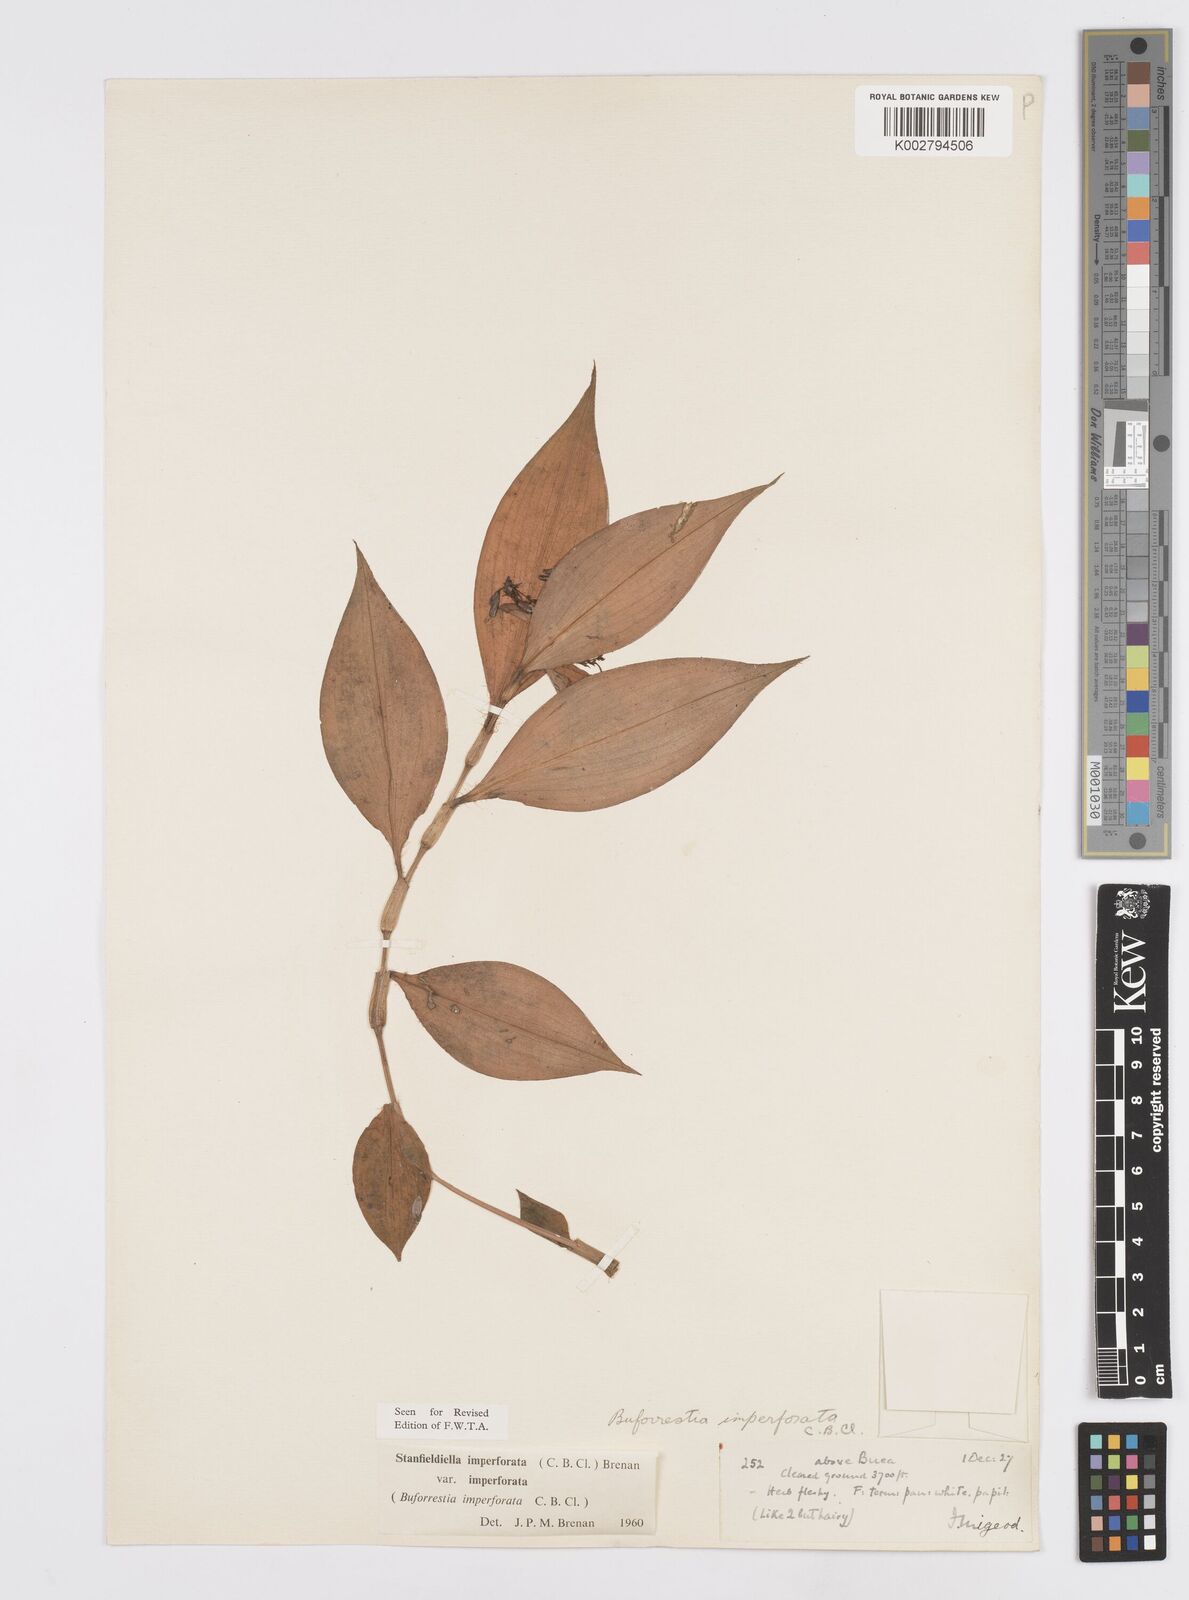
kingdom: Plantae
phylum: Tracheophyta
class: Liliopsida
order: Commelinales
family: Commelinaceae
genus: Stanfieldiella
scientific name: Stanfieldiella imperforata
